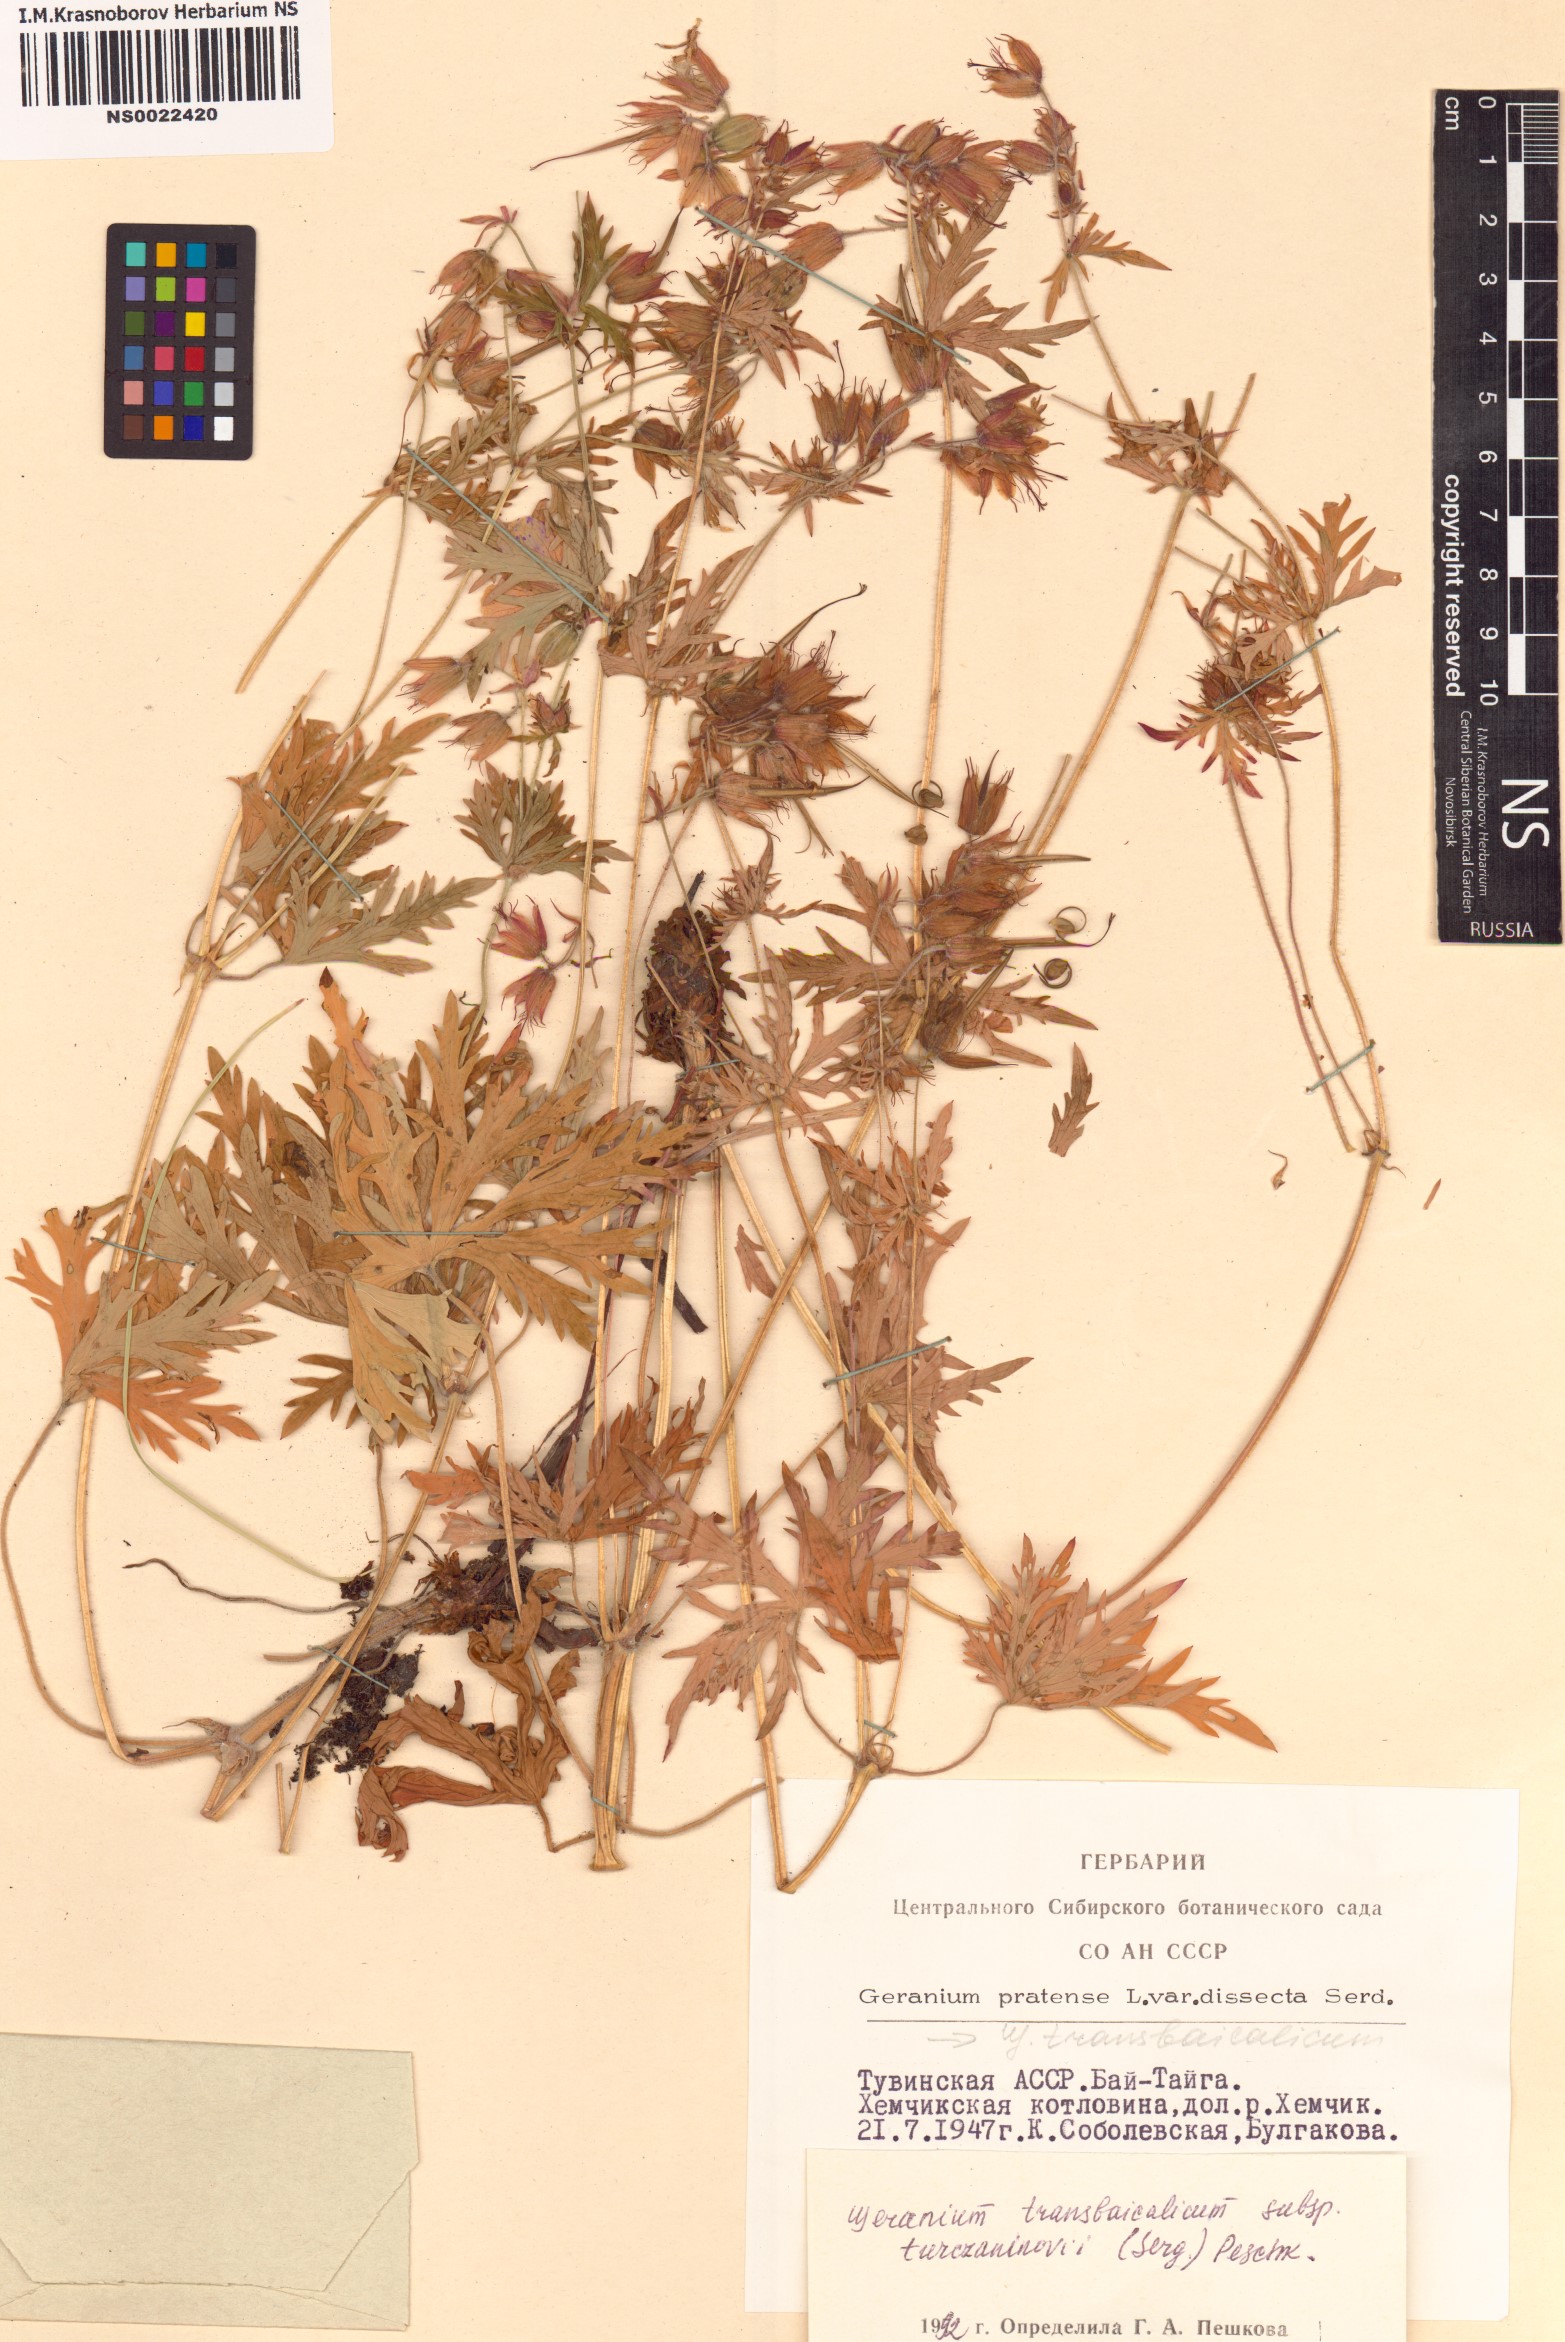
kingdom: Plantae
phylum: Tracheophyta
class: Magnoliopsida
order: Geraniales
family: Geraniaceae
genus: Geranium
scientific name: Geranium pratense
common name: Meadow crane's-bill
